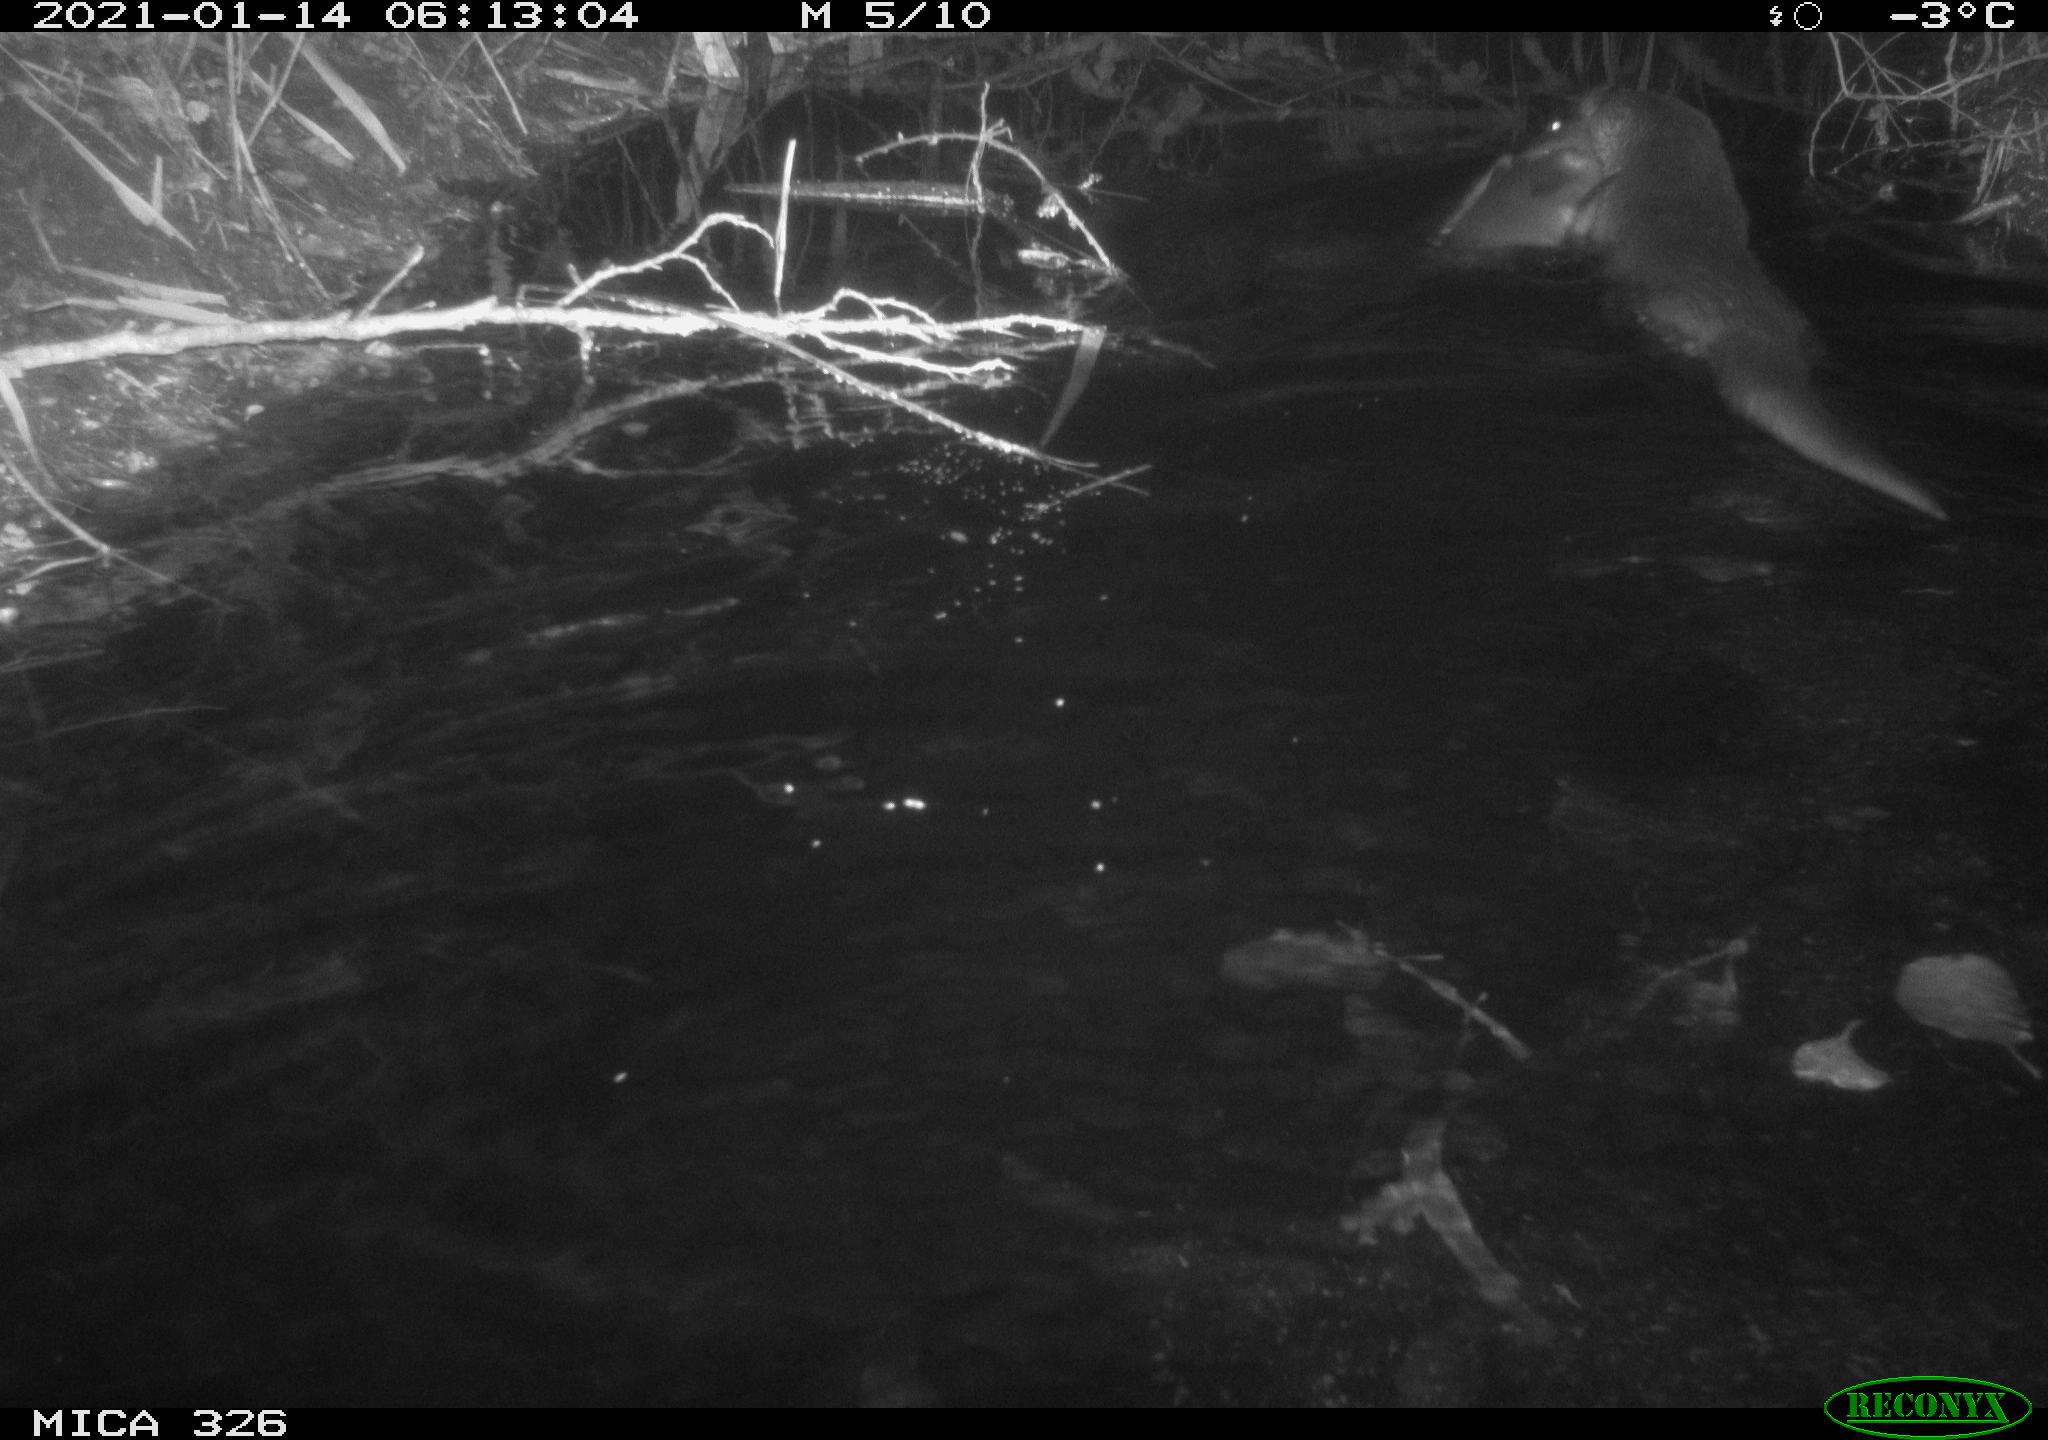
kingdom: Animalia
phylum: Chordata
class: Mammalia
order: Carnivora
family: Mustelidae
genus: Lutra
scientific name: Lutra lutra
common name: European otter
